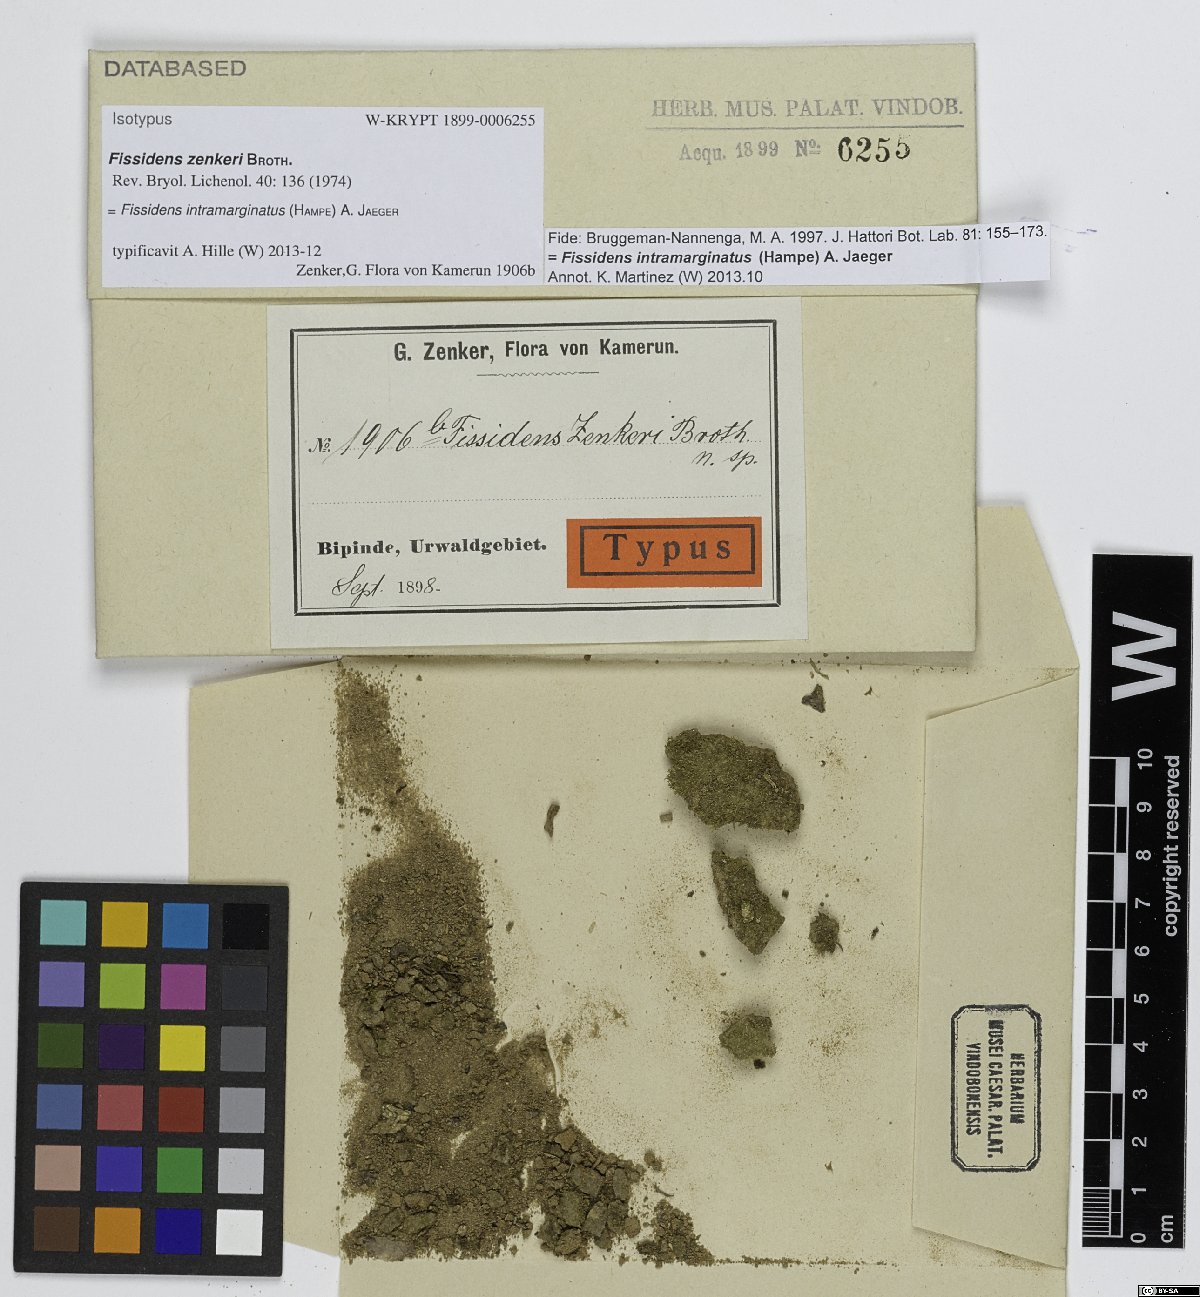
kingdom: Plantae
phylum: Bryophyta
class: Bryopsida
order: Dicranales
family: Fissidentaceae
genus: Fissidens
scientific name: Fissidens intramarginatus
